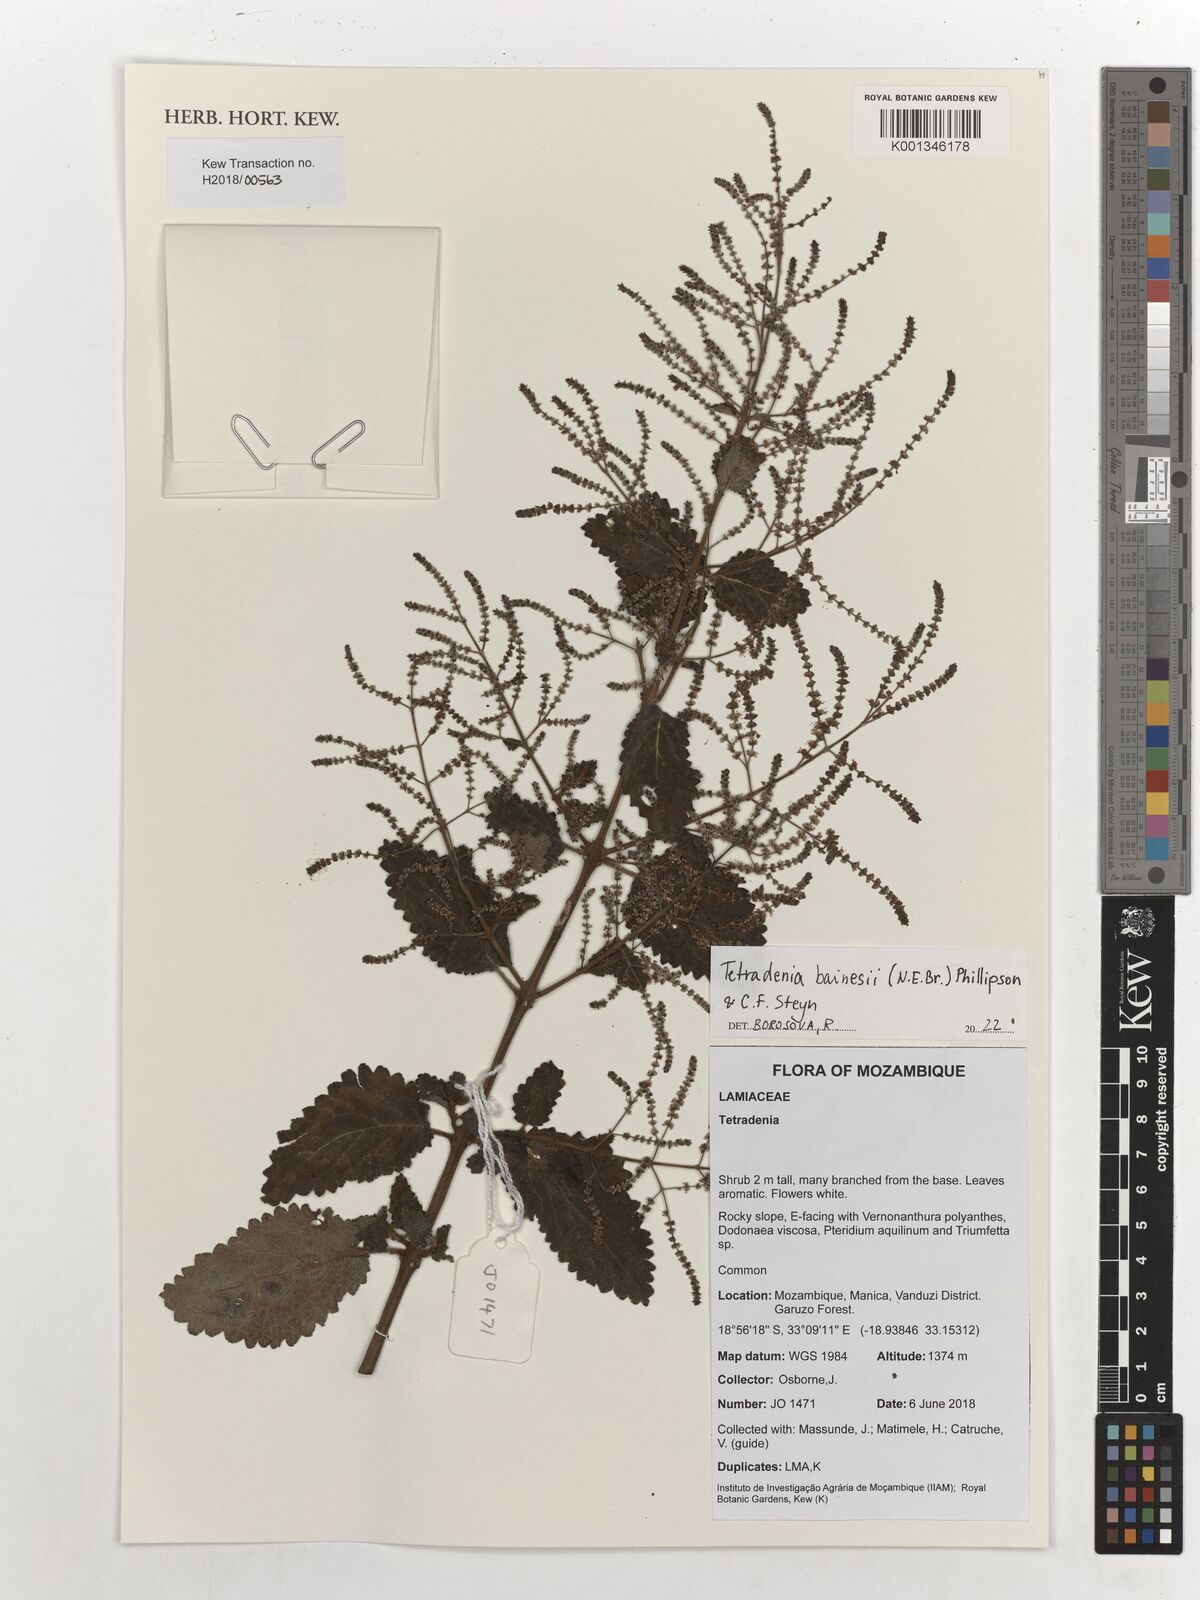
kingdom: Plantae
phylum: Tracheophyta
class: Magnoliopsida
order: Lamiales
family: Lamiaceae
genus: Tetradenia
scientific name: Tetradenia bainesii
